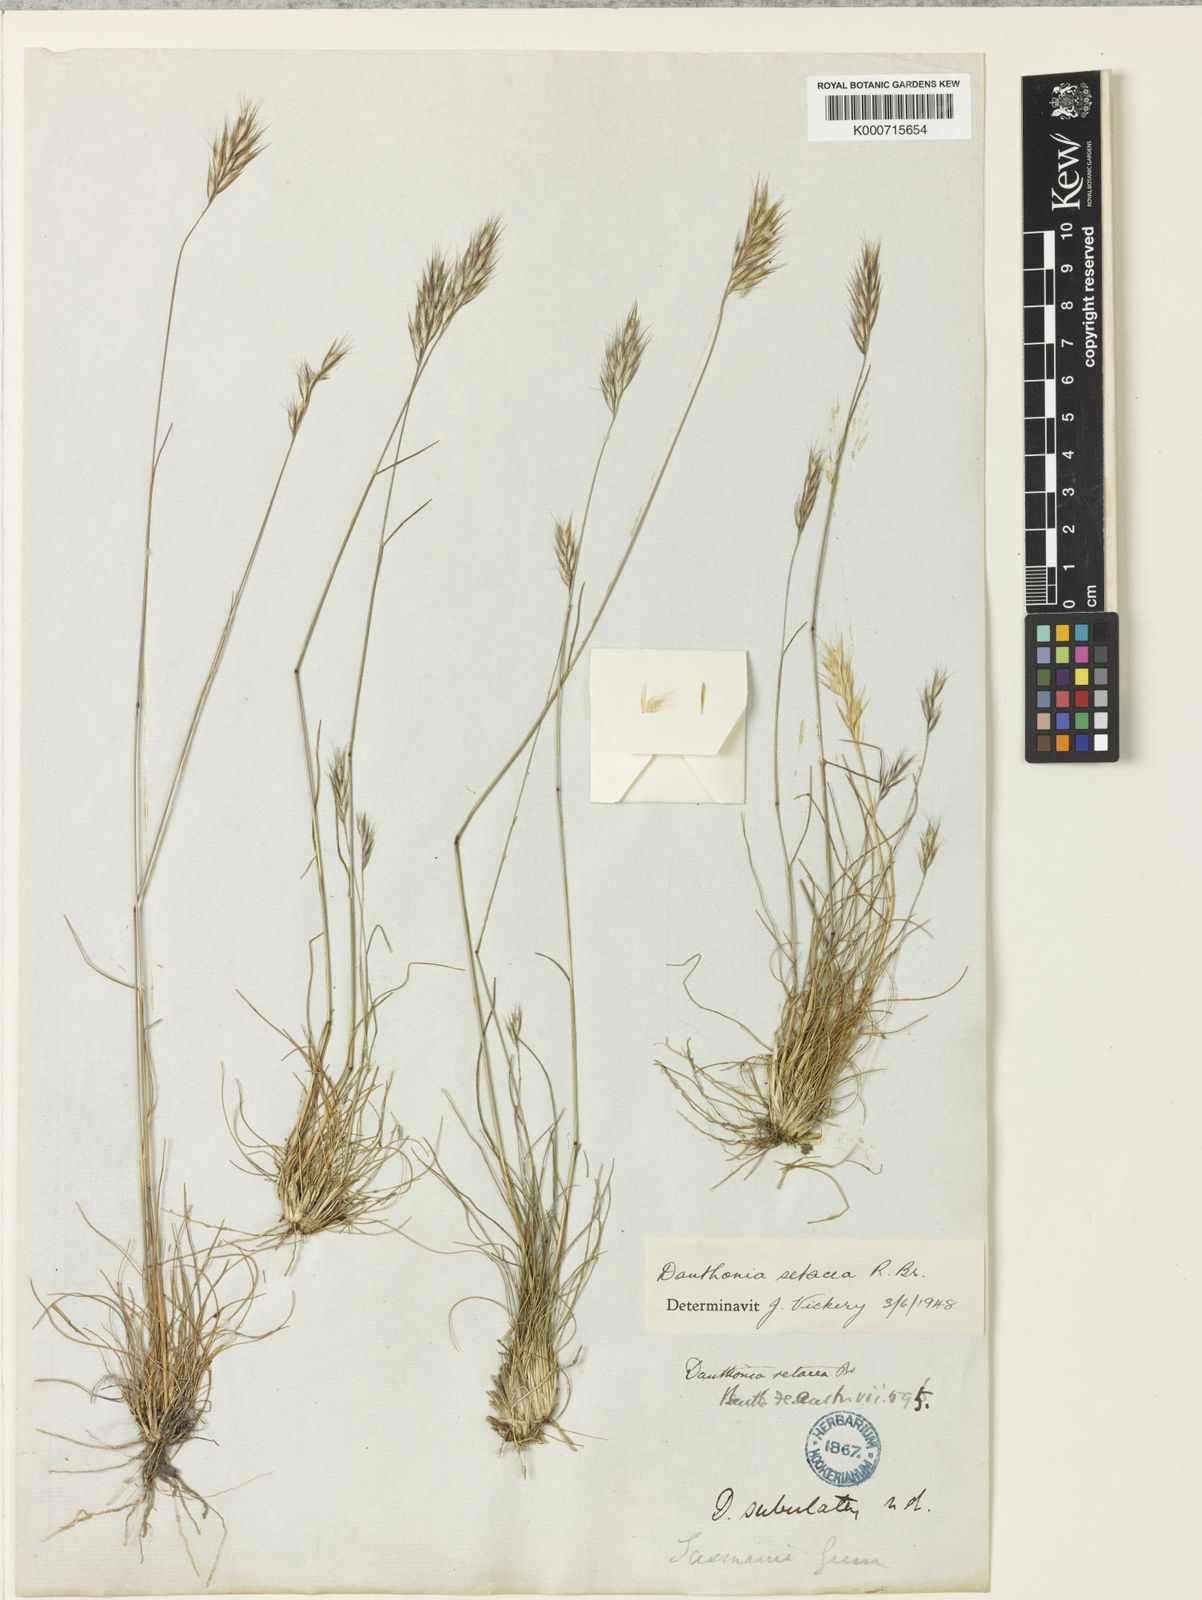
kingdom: Plantae
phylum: Tracheophyta
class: Liliopsida
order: Poales
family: Poaceae
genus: Rytidosperma
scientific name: Rytidosperma setaceum
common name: Small-flower wallaby grass
